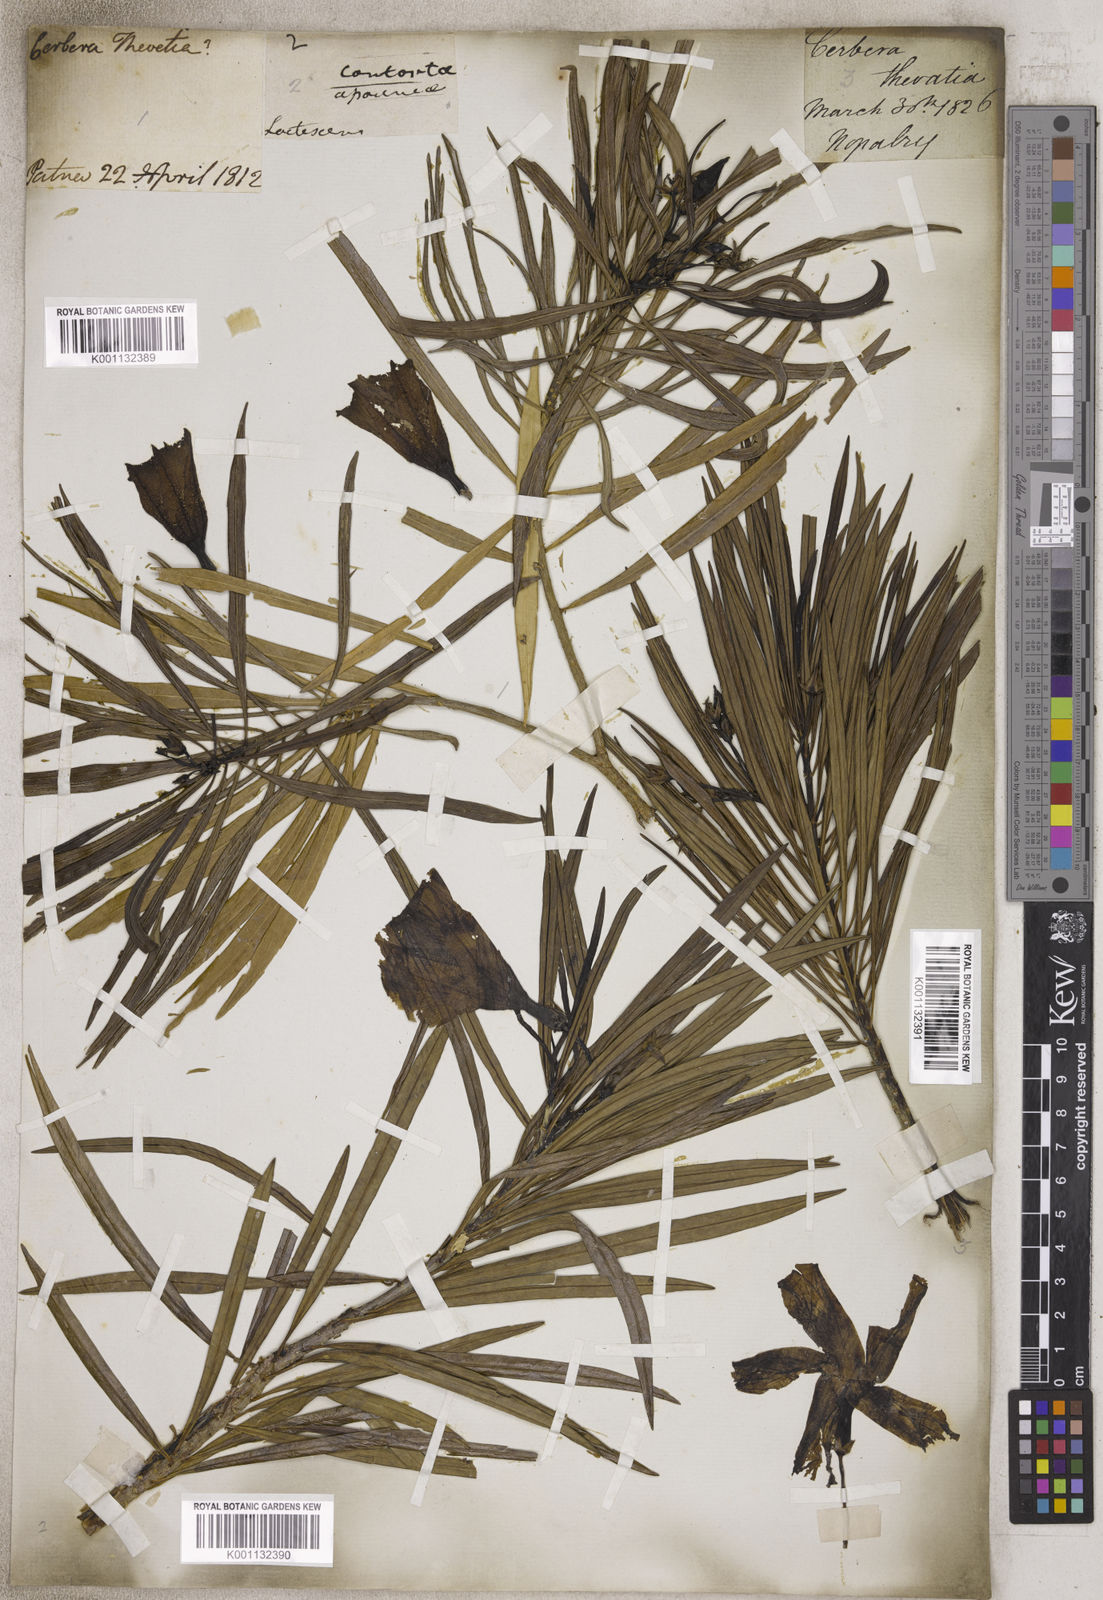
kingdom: Plantae
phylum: Tracheophyta
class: Magnoliopsida
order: Gentianales
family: Apocynaceae
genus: Cerbera
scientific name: Cerbera
